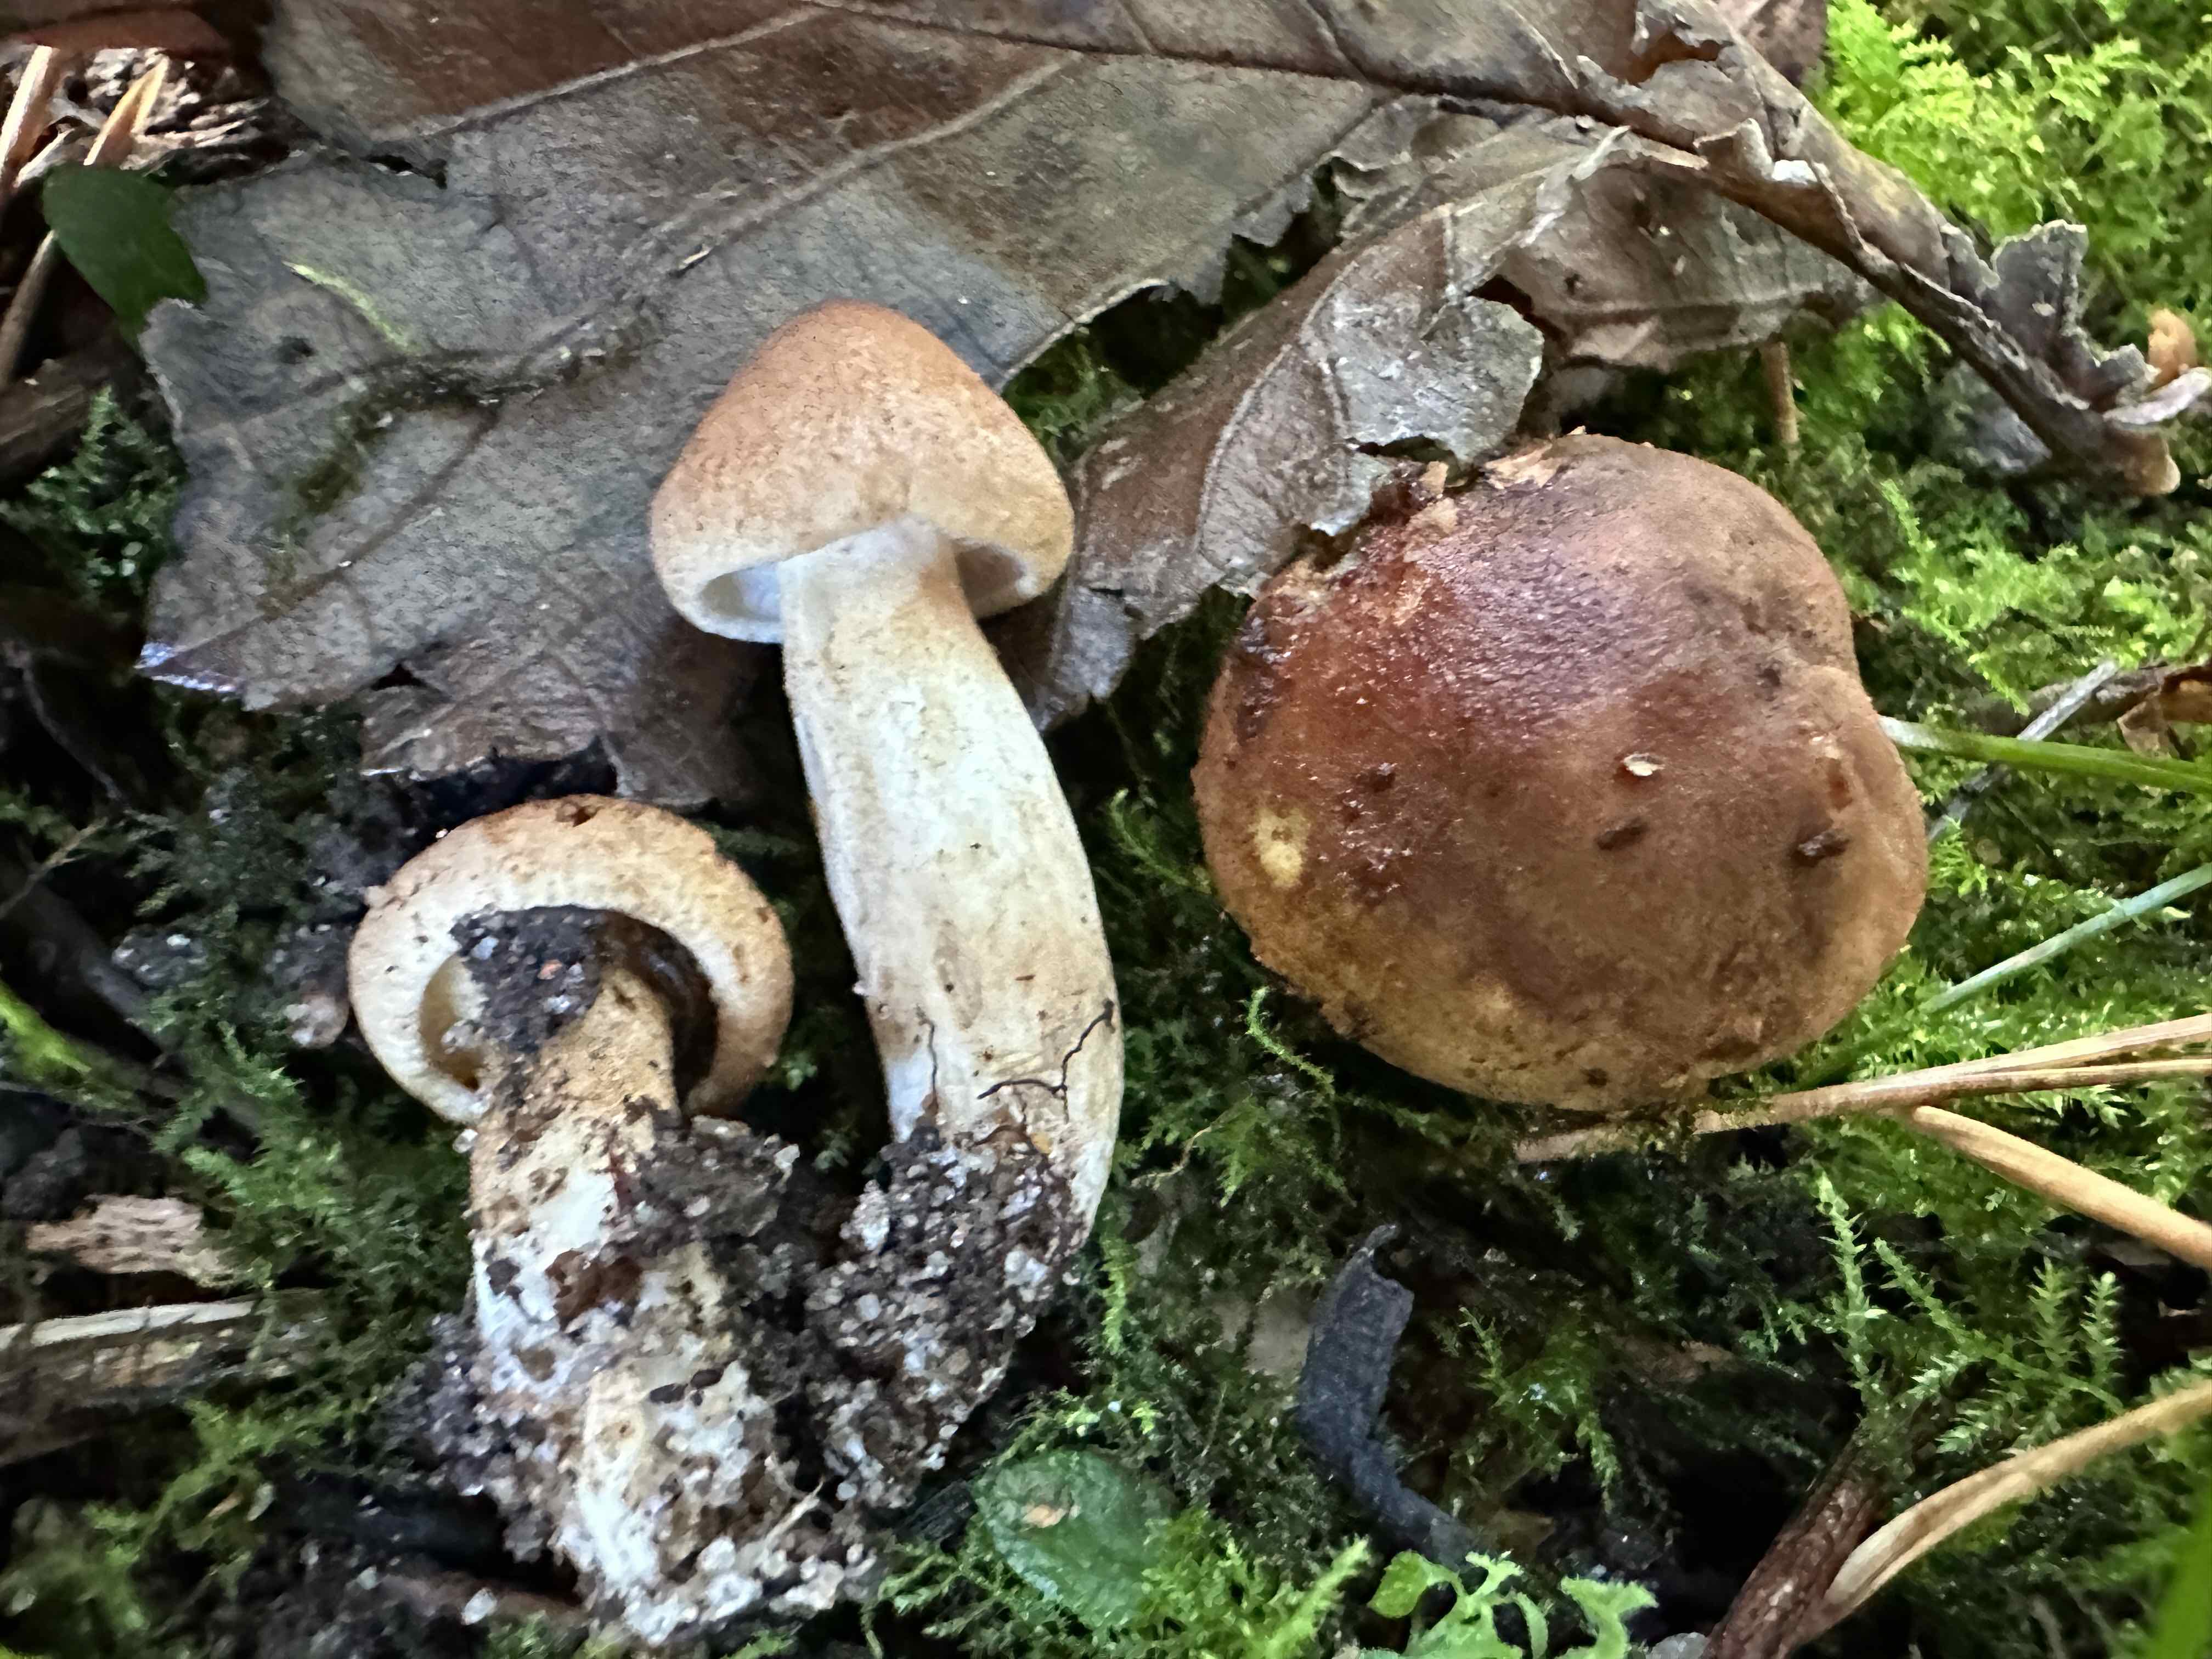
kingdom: Fungi
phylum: Basidiomycota
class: Agaricomycetes
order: Agaricales
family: Tricholomataceae
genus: Tricholoma
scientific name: Tricholoma imbricatum
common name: skællet ridderhat
